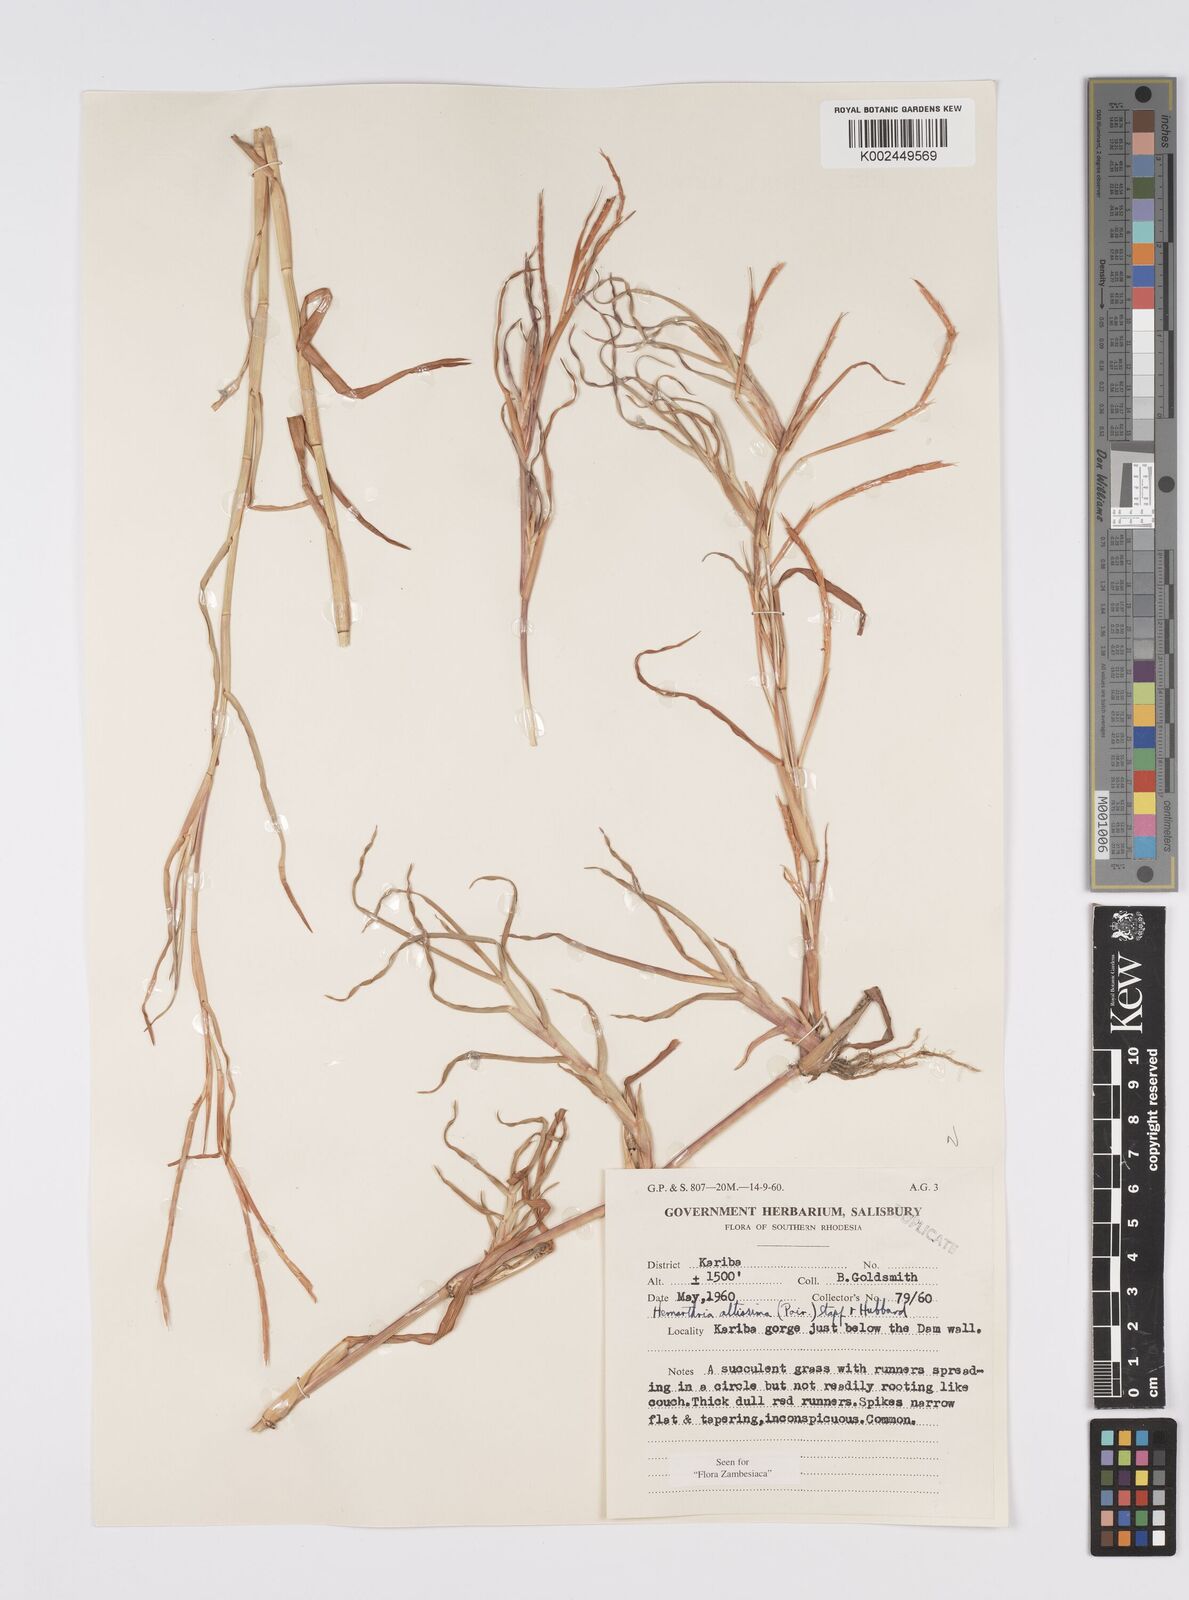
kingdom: Plantae
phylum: Tracheophyta
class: Liliopsida
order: Poales
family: Poaceae
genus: Hemarthria
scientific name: Hemarthria altissima
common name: African jointgrass
